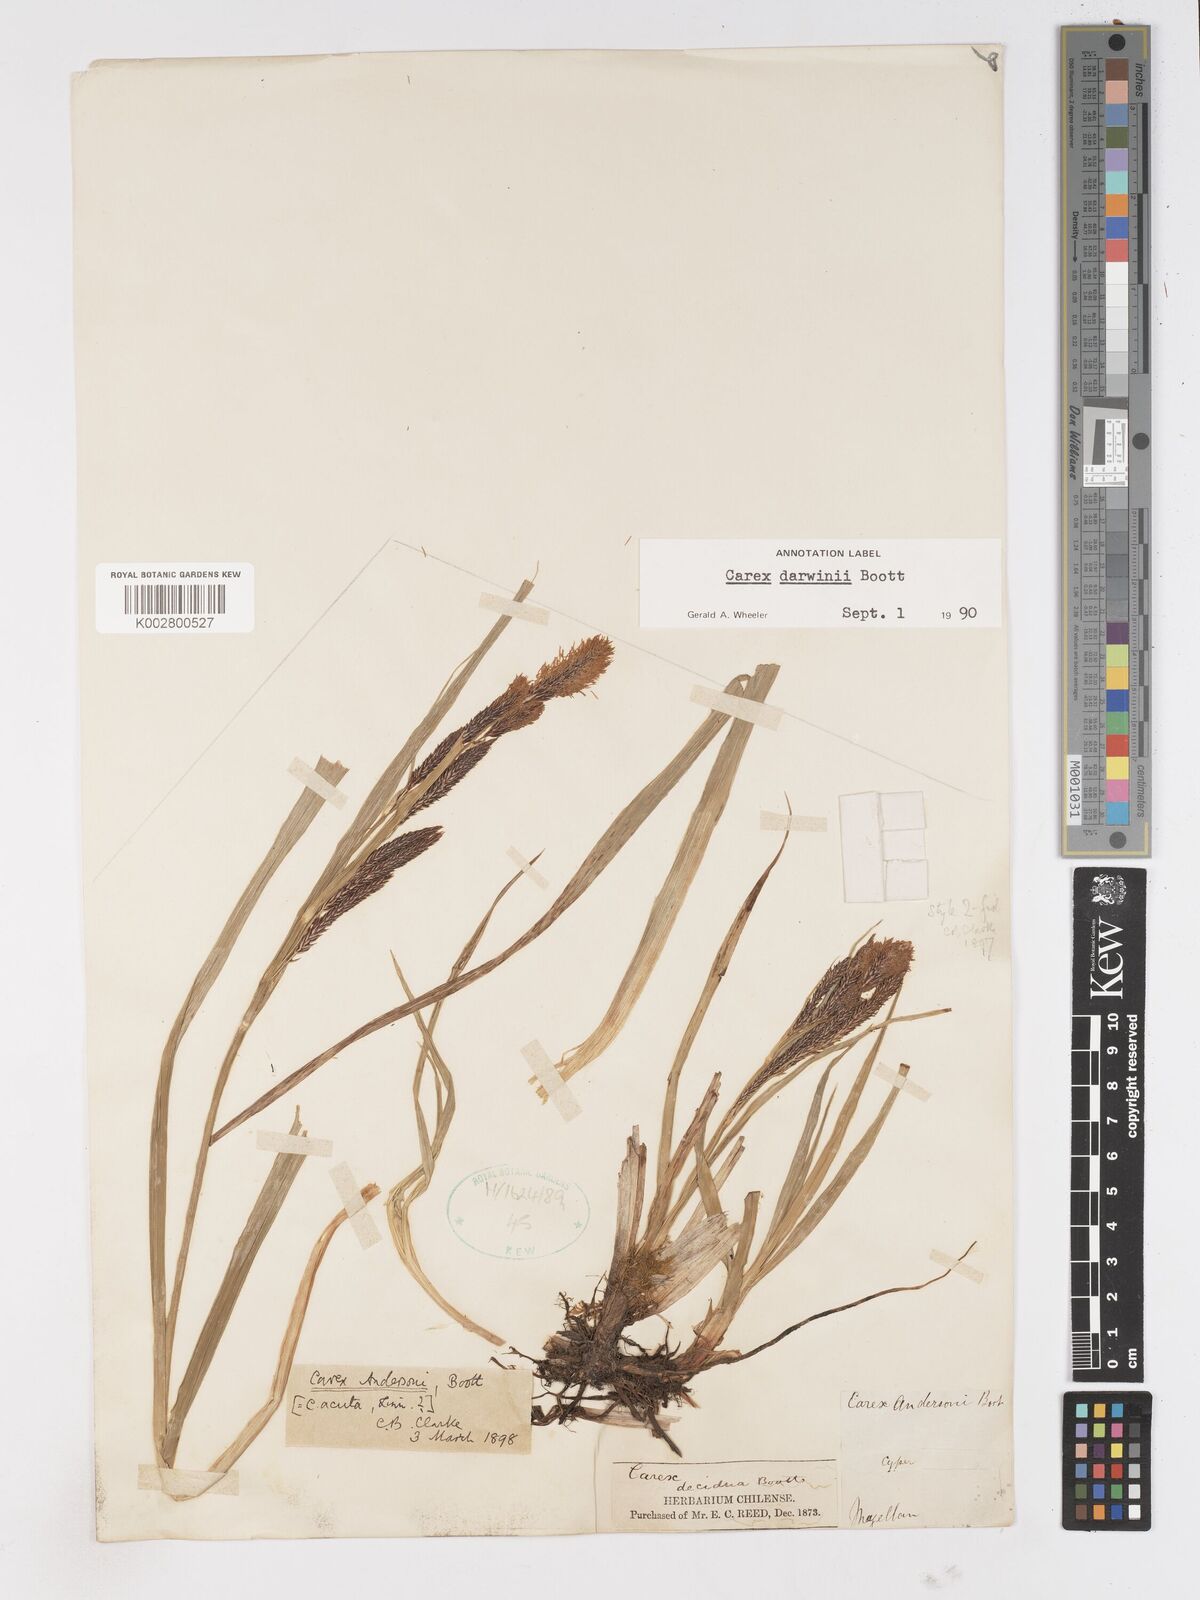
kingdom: Plantae
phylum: Tracheophyta
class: Liliopsida
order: Poales
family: Cyperaceae
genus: Carex
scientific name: Carex darwinii
